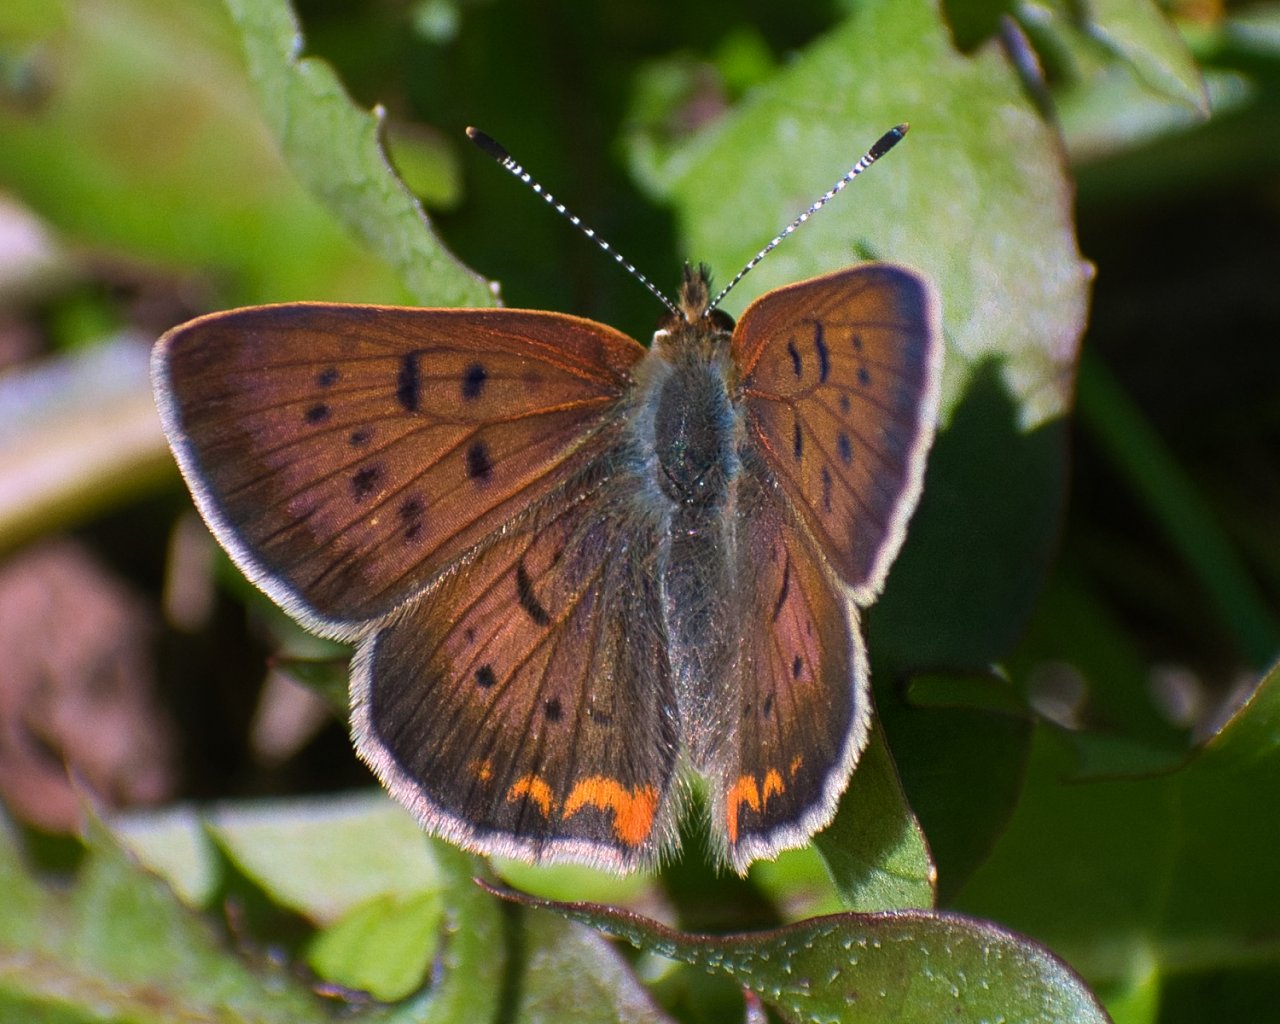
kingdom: Animalia
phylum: Arthropoda
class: Insecta
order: Lepidoptera
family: Sesiidae
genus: Sesia
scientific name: Sesia Lycaena helloides
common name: Purplish Copper
